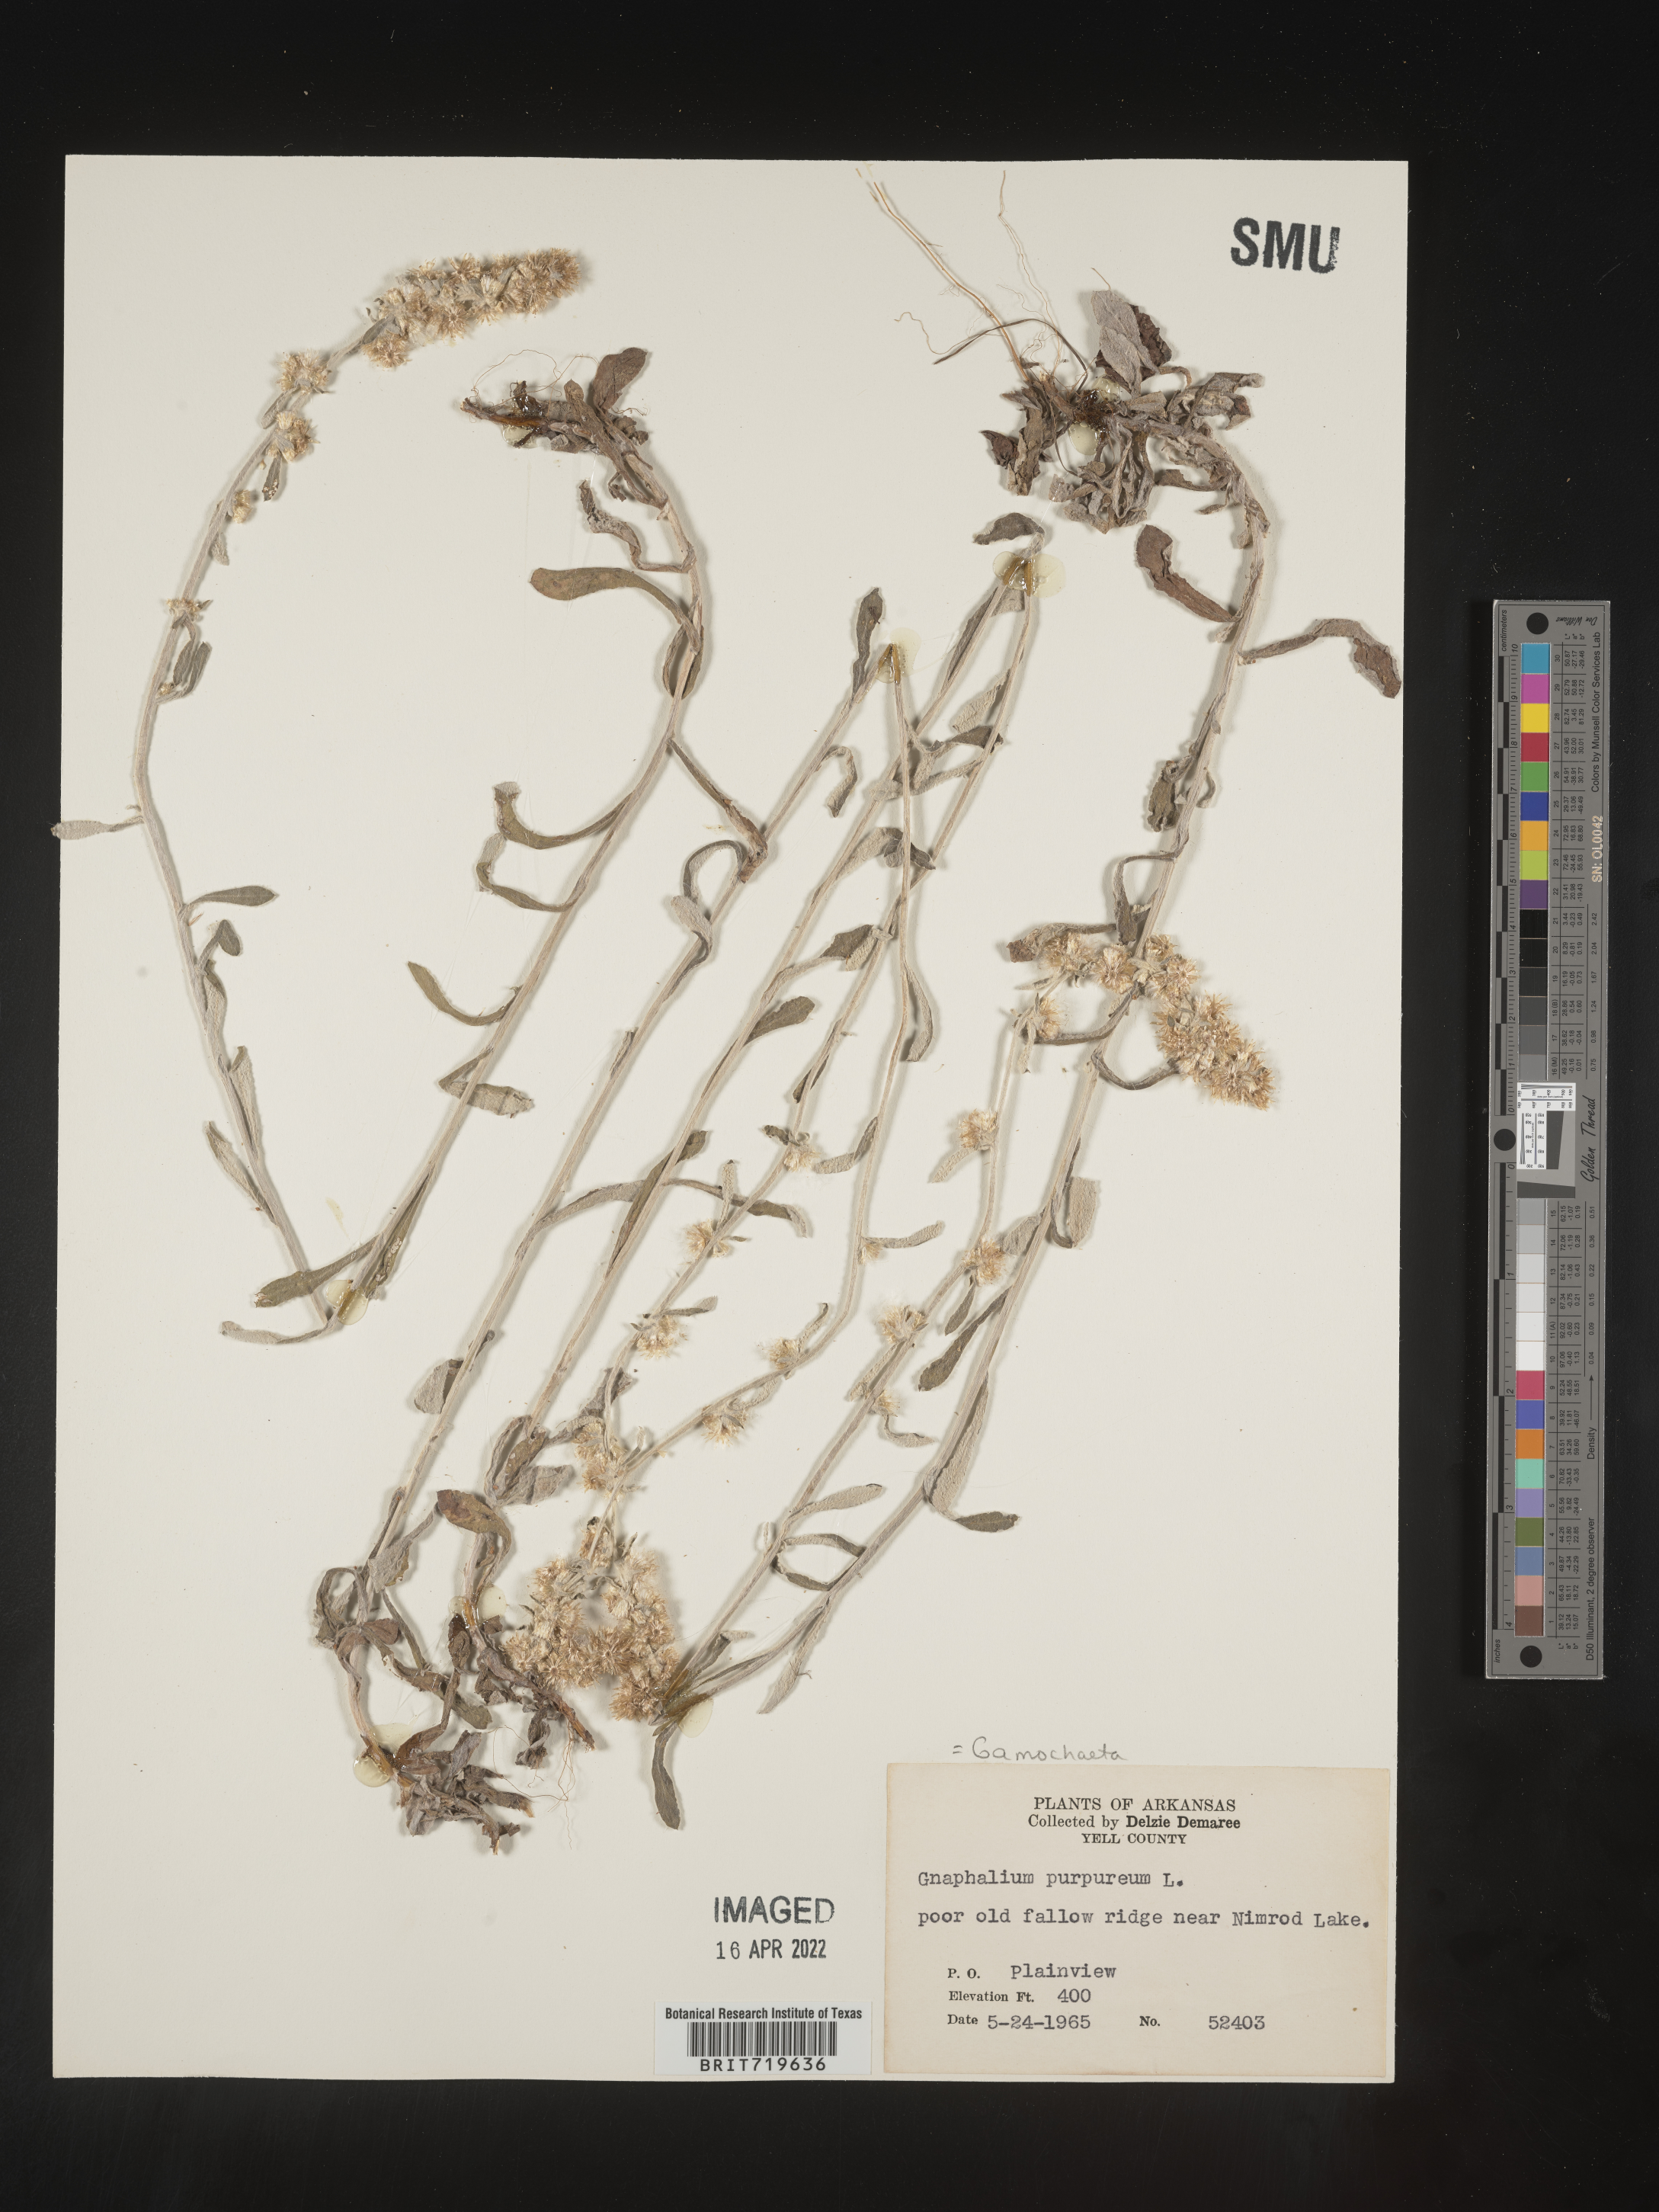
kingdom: Plantae
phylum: Tracheophyta
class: Magnoliopsida
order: Asterales
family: Asteraceae
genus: Gamochaeta
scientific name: Gamochaeta purpurea
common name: Purple cudweed
